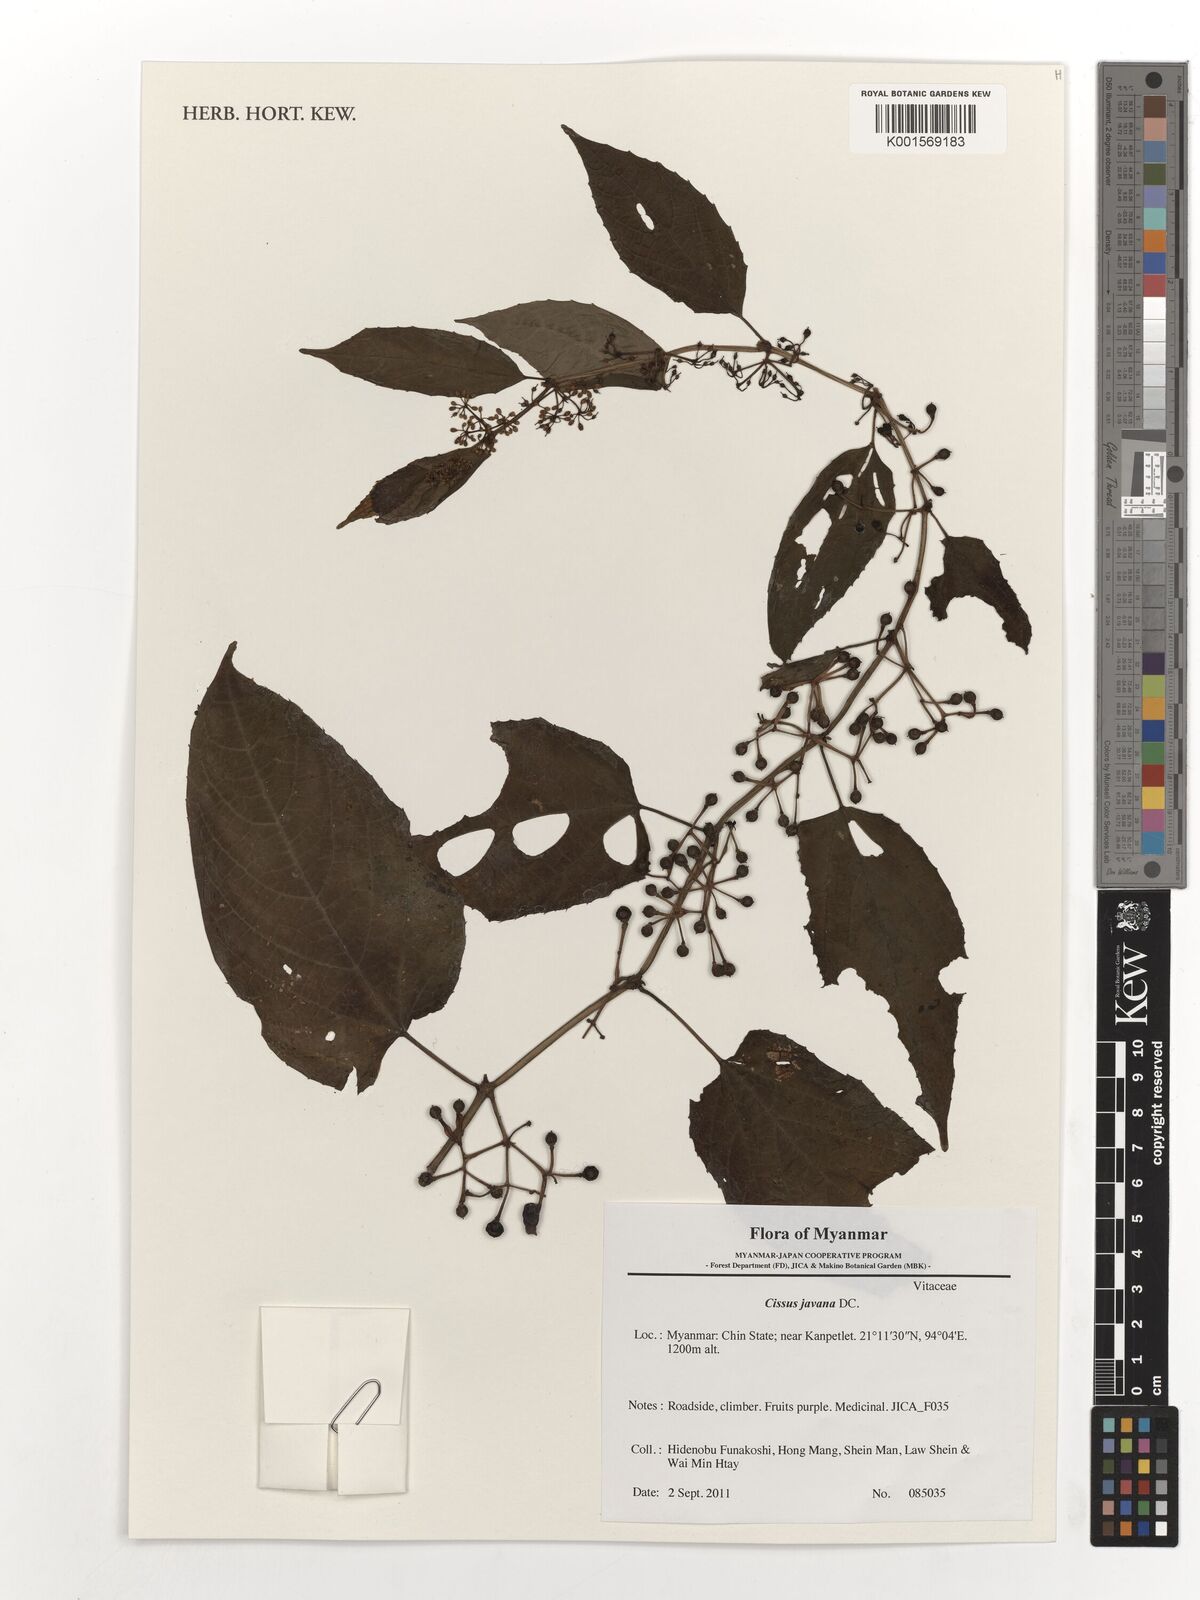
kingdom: Plantae
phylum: Tracheophyta
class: Magnoliopsida
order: Vitales
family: Vitaceae
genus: Cissus
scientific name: Cissus discolor
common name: Climbing-begonia
